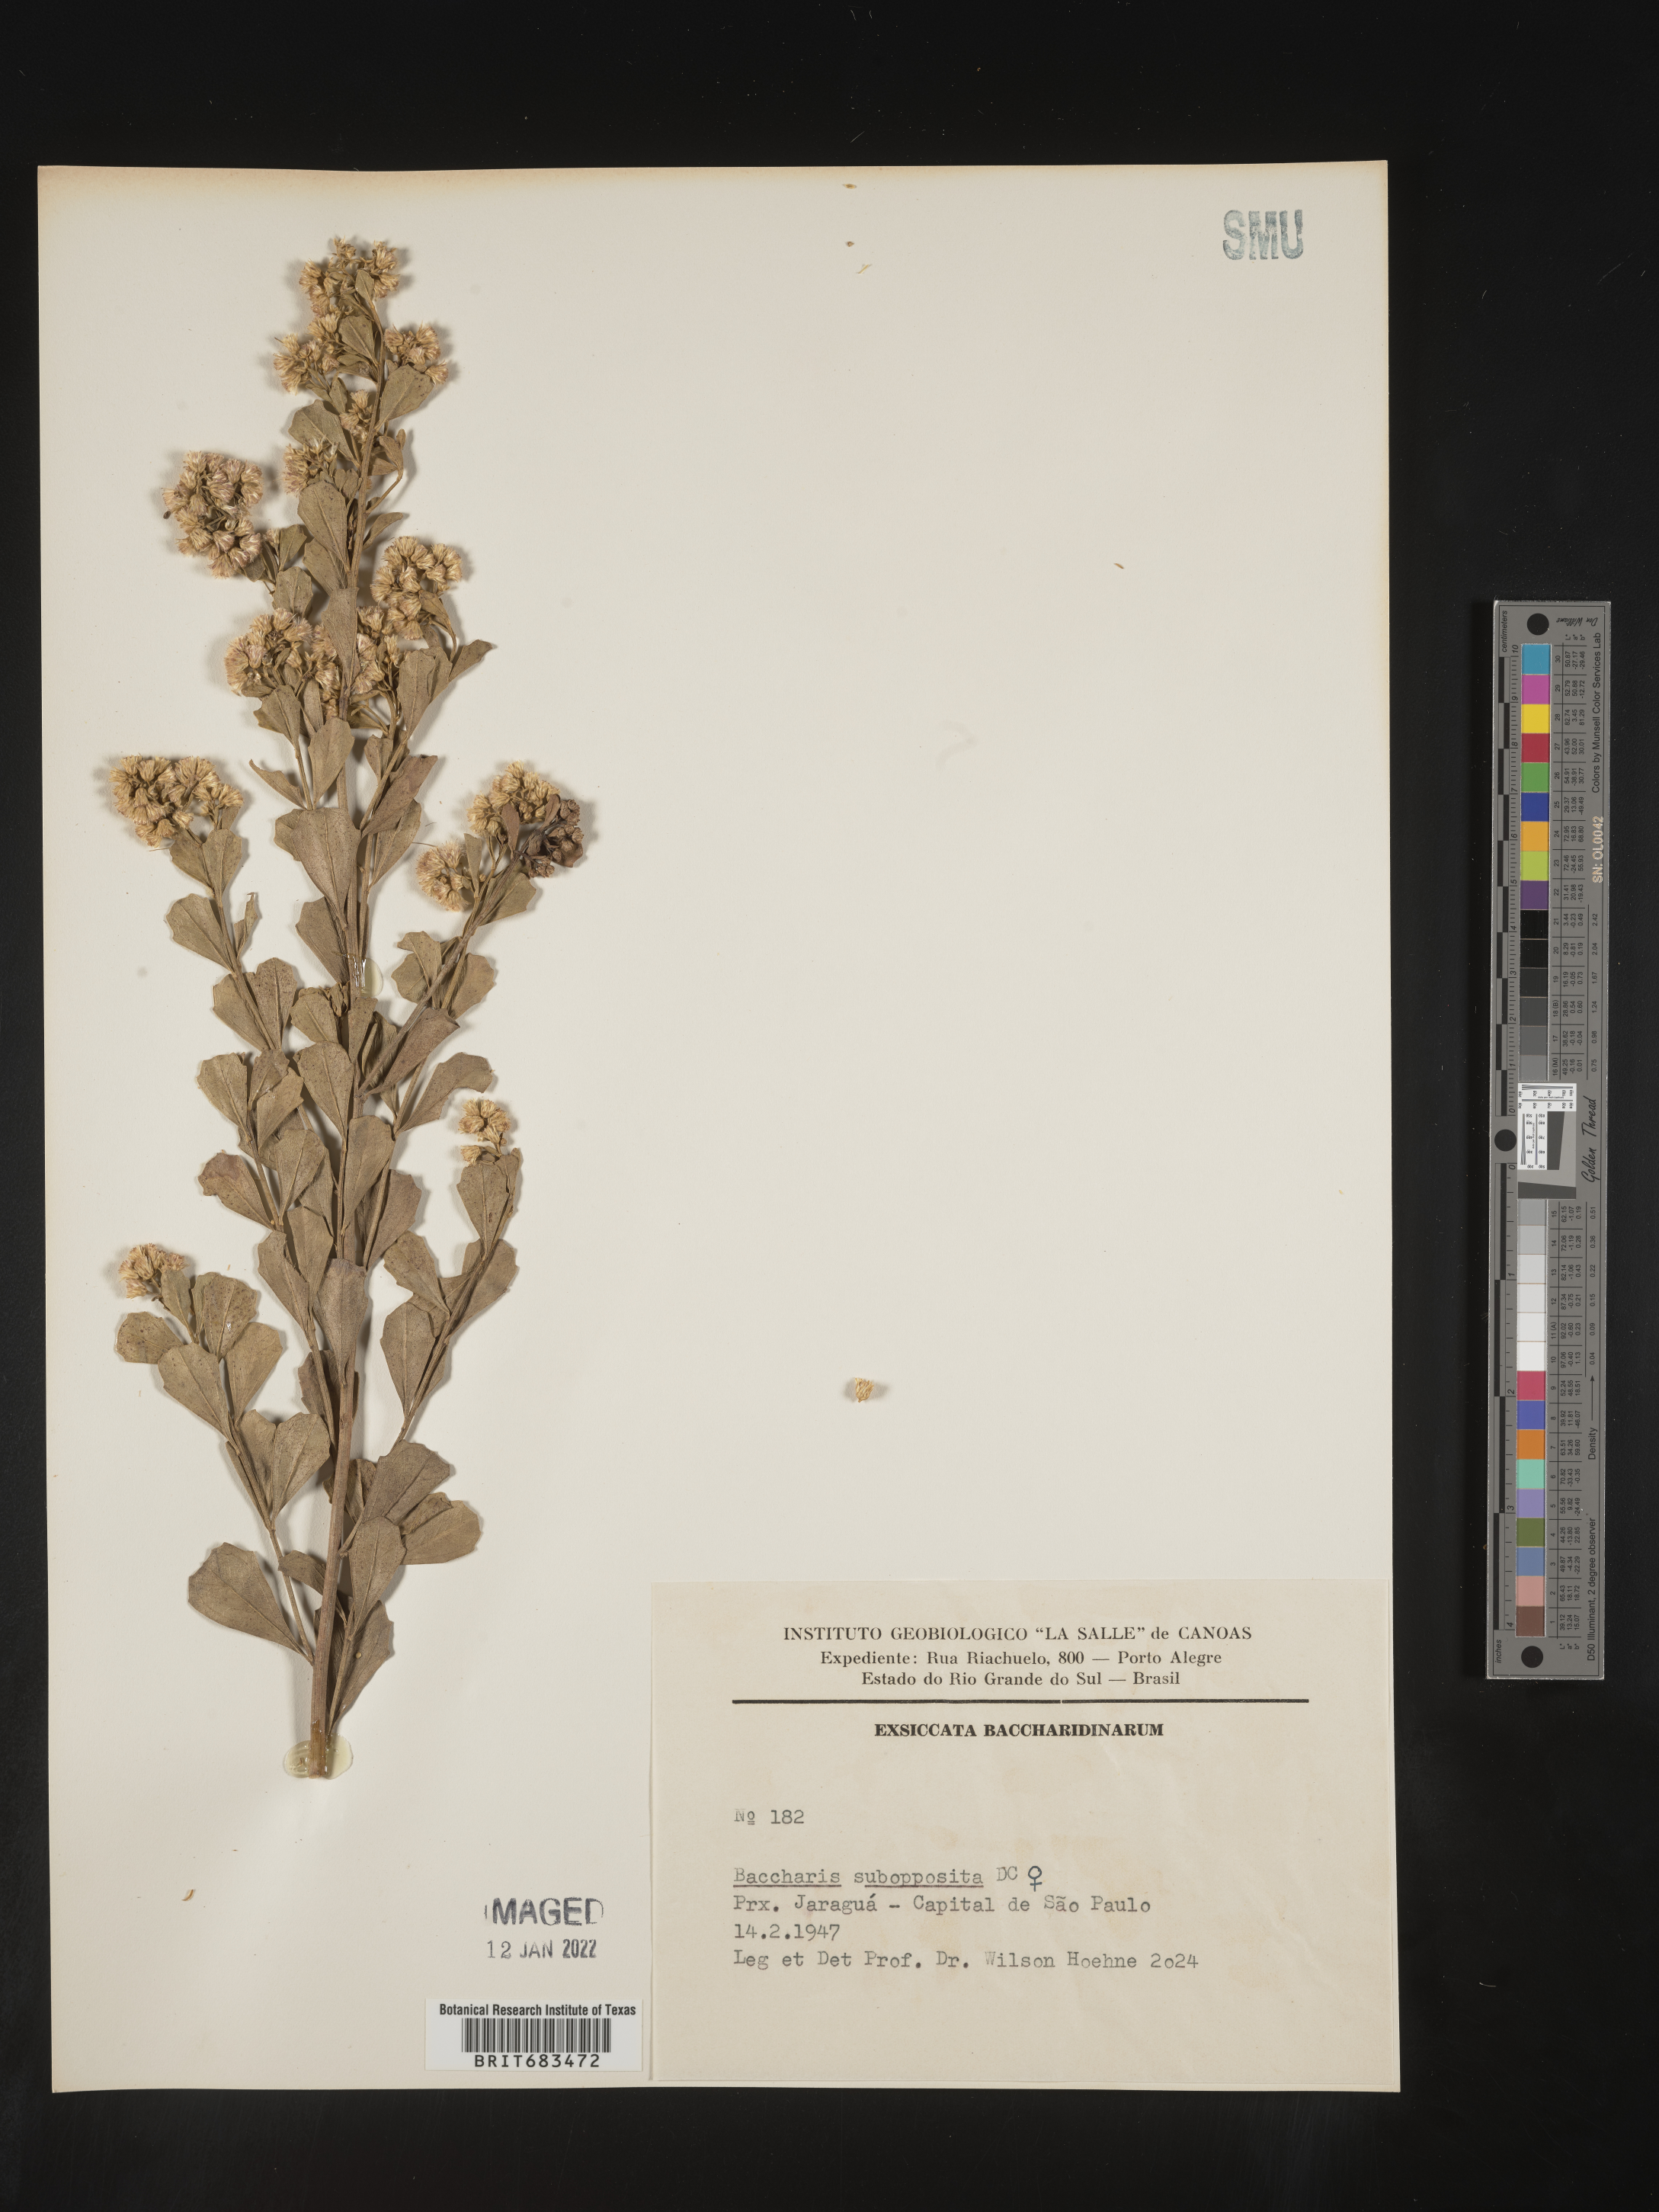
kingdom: Plantae
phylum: Tracheophyta
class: Magnoliopsida
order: Asterales
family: Asteraceae
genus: Baccharis
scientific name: Baccharis
